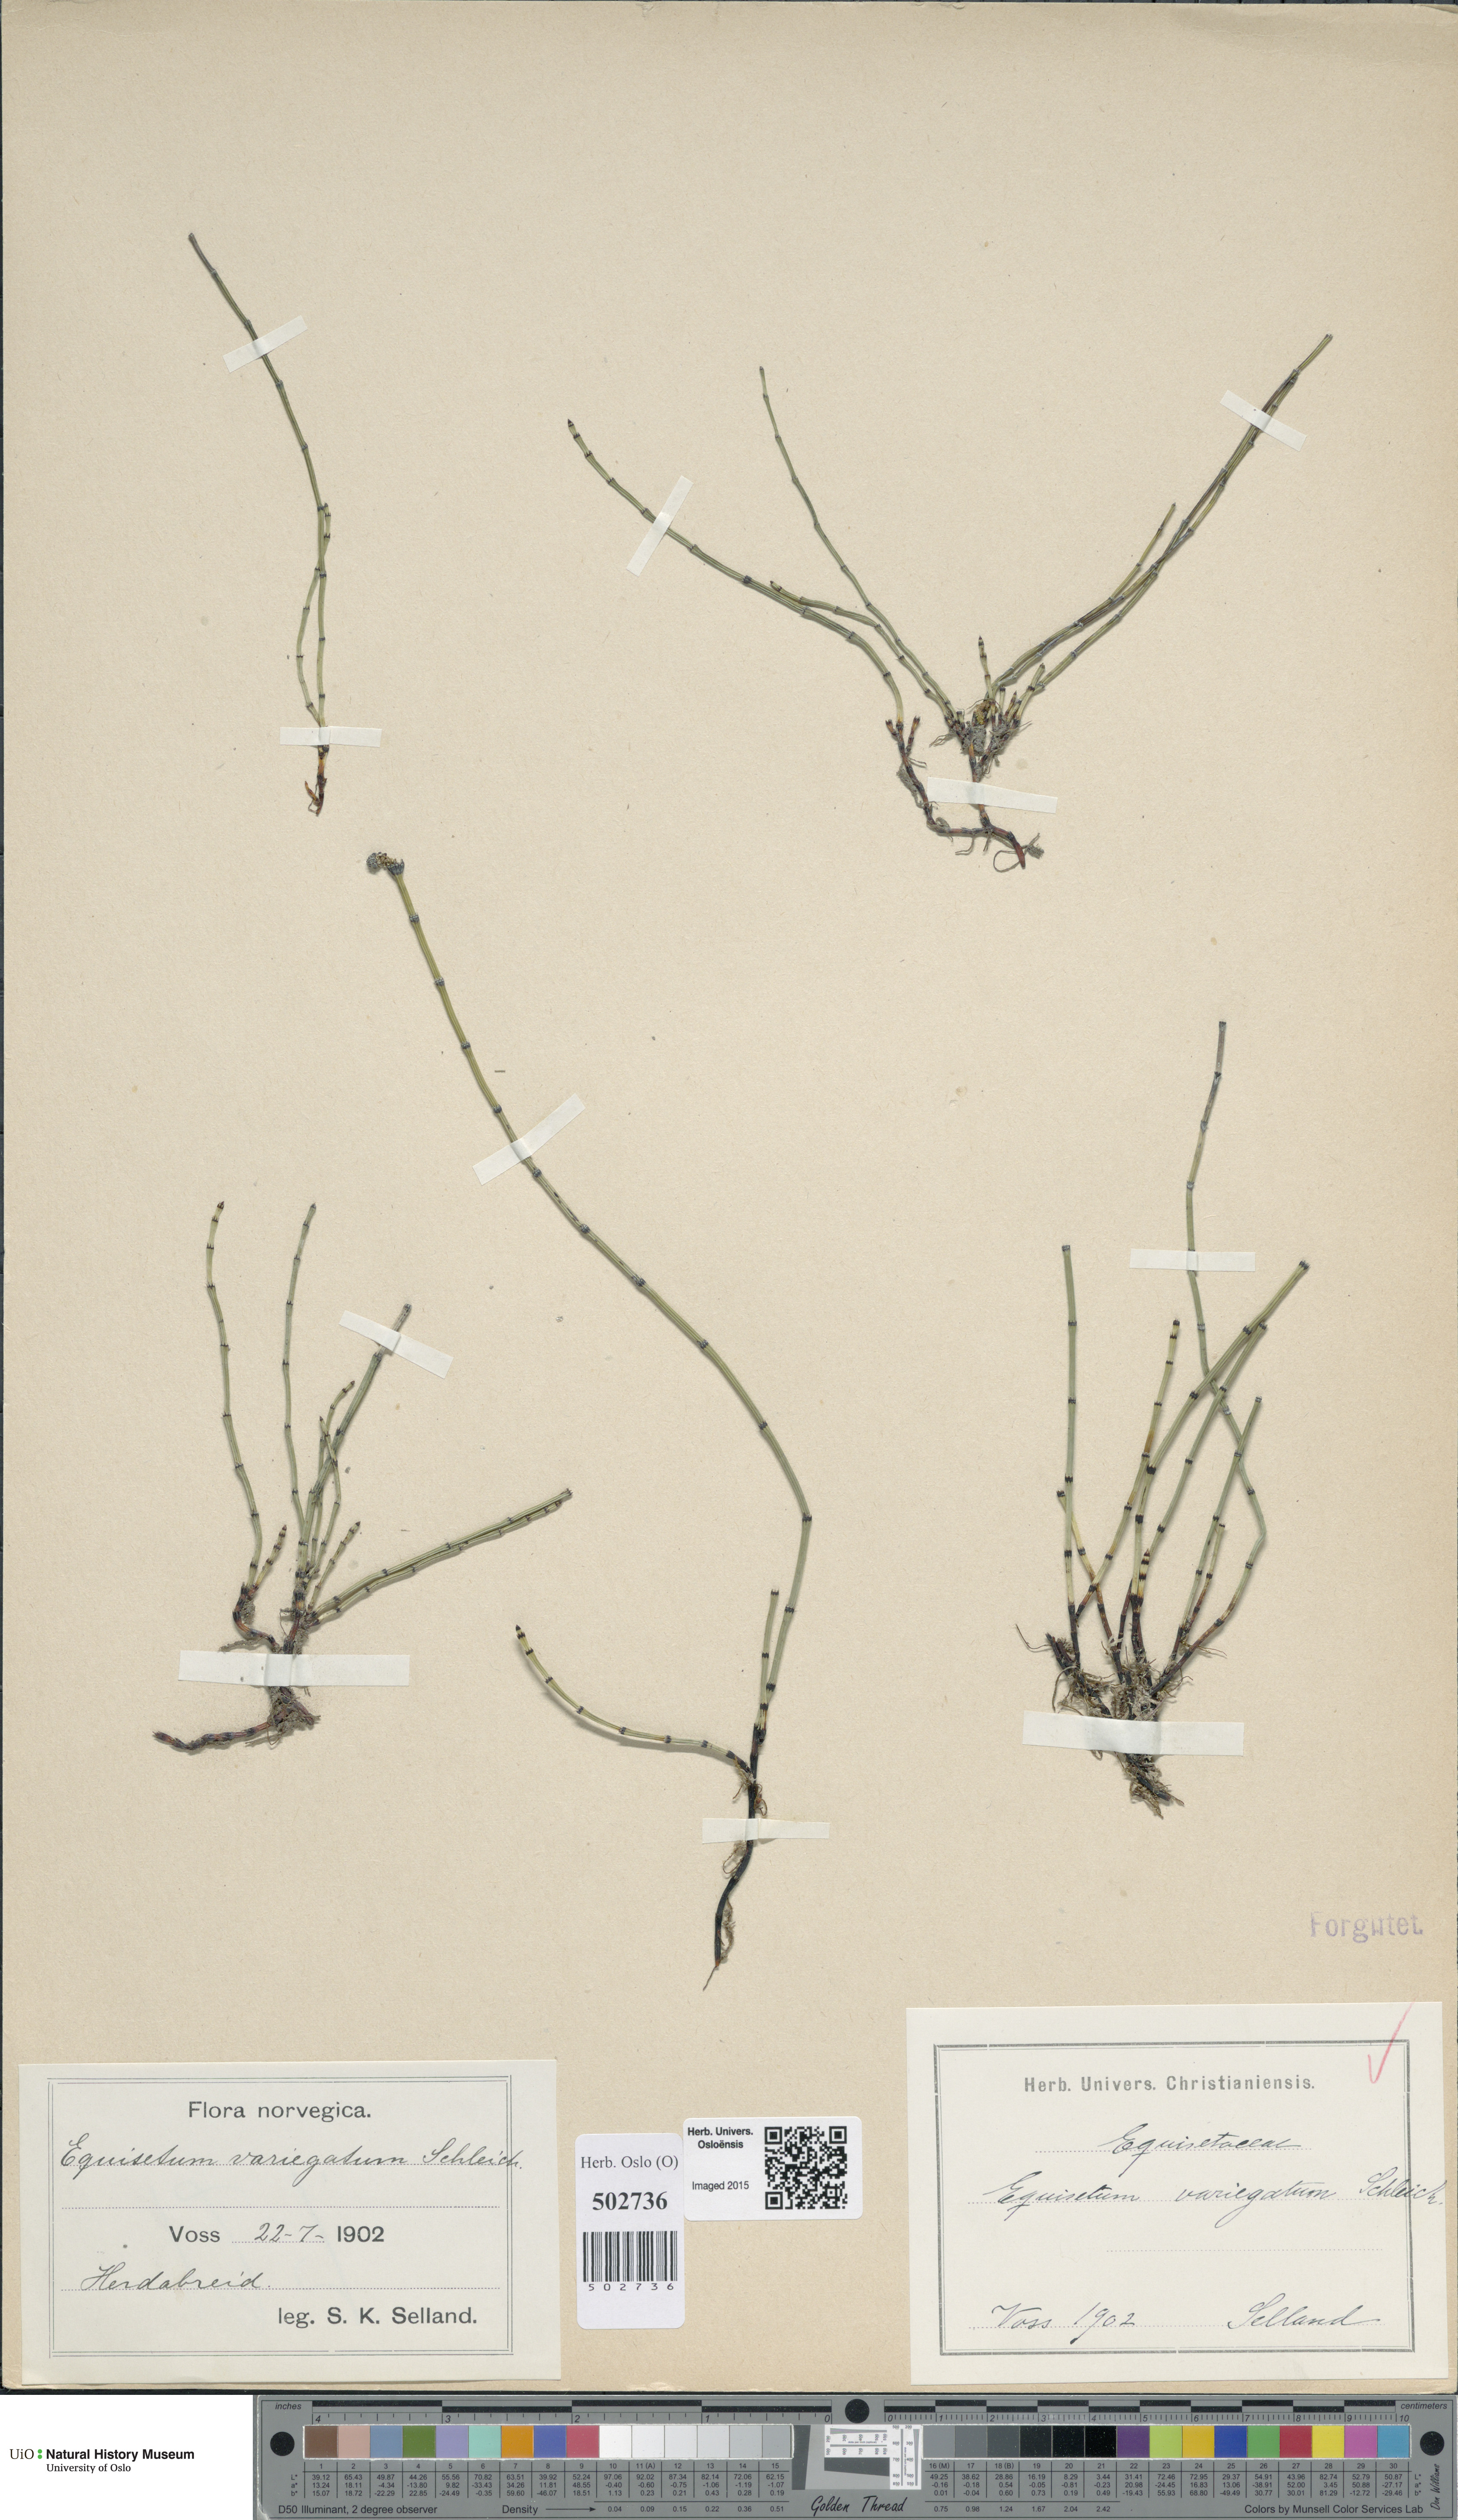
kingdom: Plantae
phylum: Tracheophyta
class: Polypodiopsida
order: Equisetales
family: Equisetaceae
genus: Equisetum
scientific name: Equisetum variegatum
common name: Variegated horsetail
